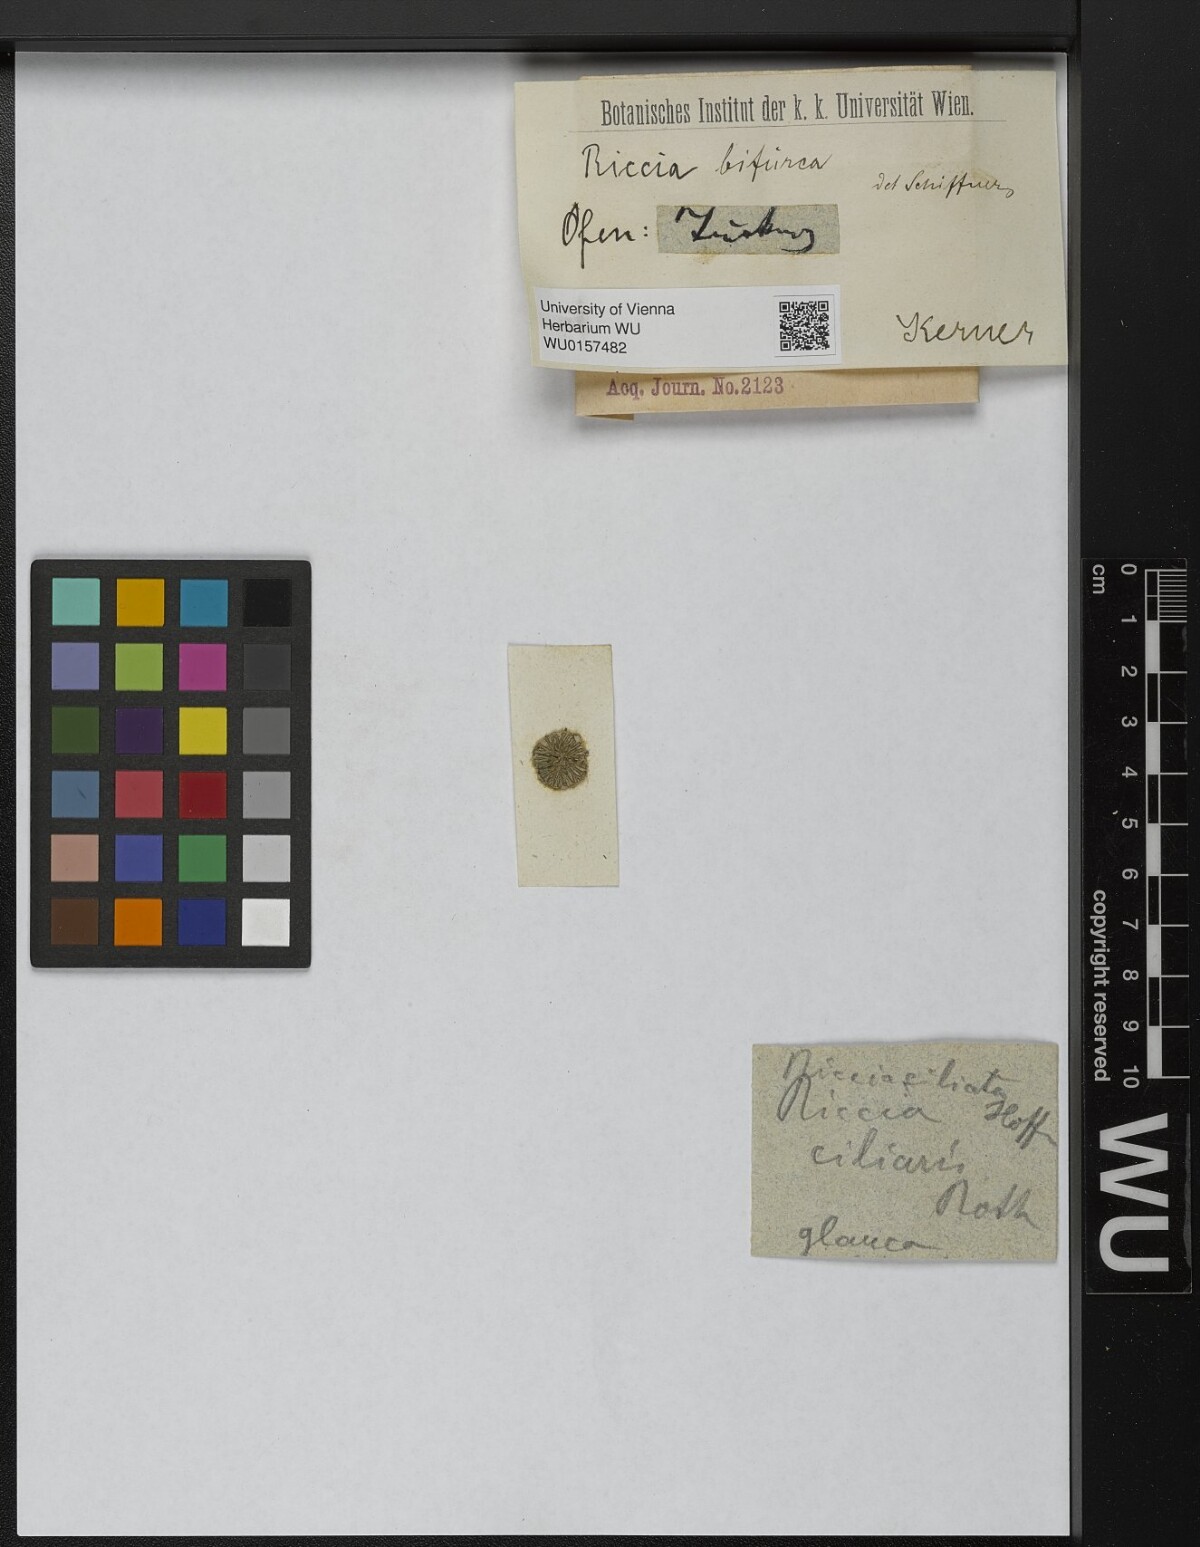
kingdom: Plantae
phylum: Marchantiophyta
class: Marchantiopsida
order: Marchantiales
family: Ricciaceae
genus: Riccia
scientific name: Riccia bifurca
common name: Lizard crystalwort
